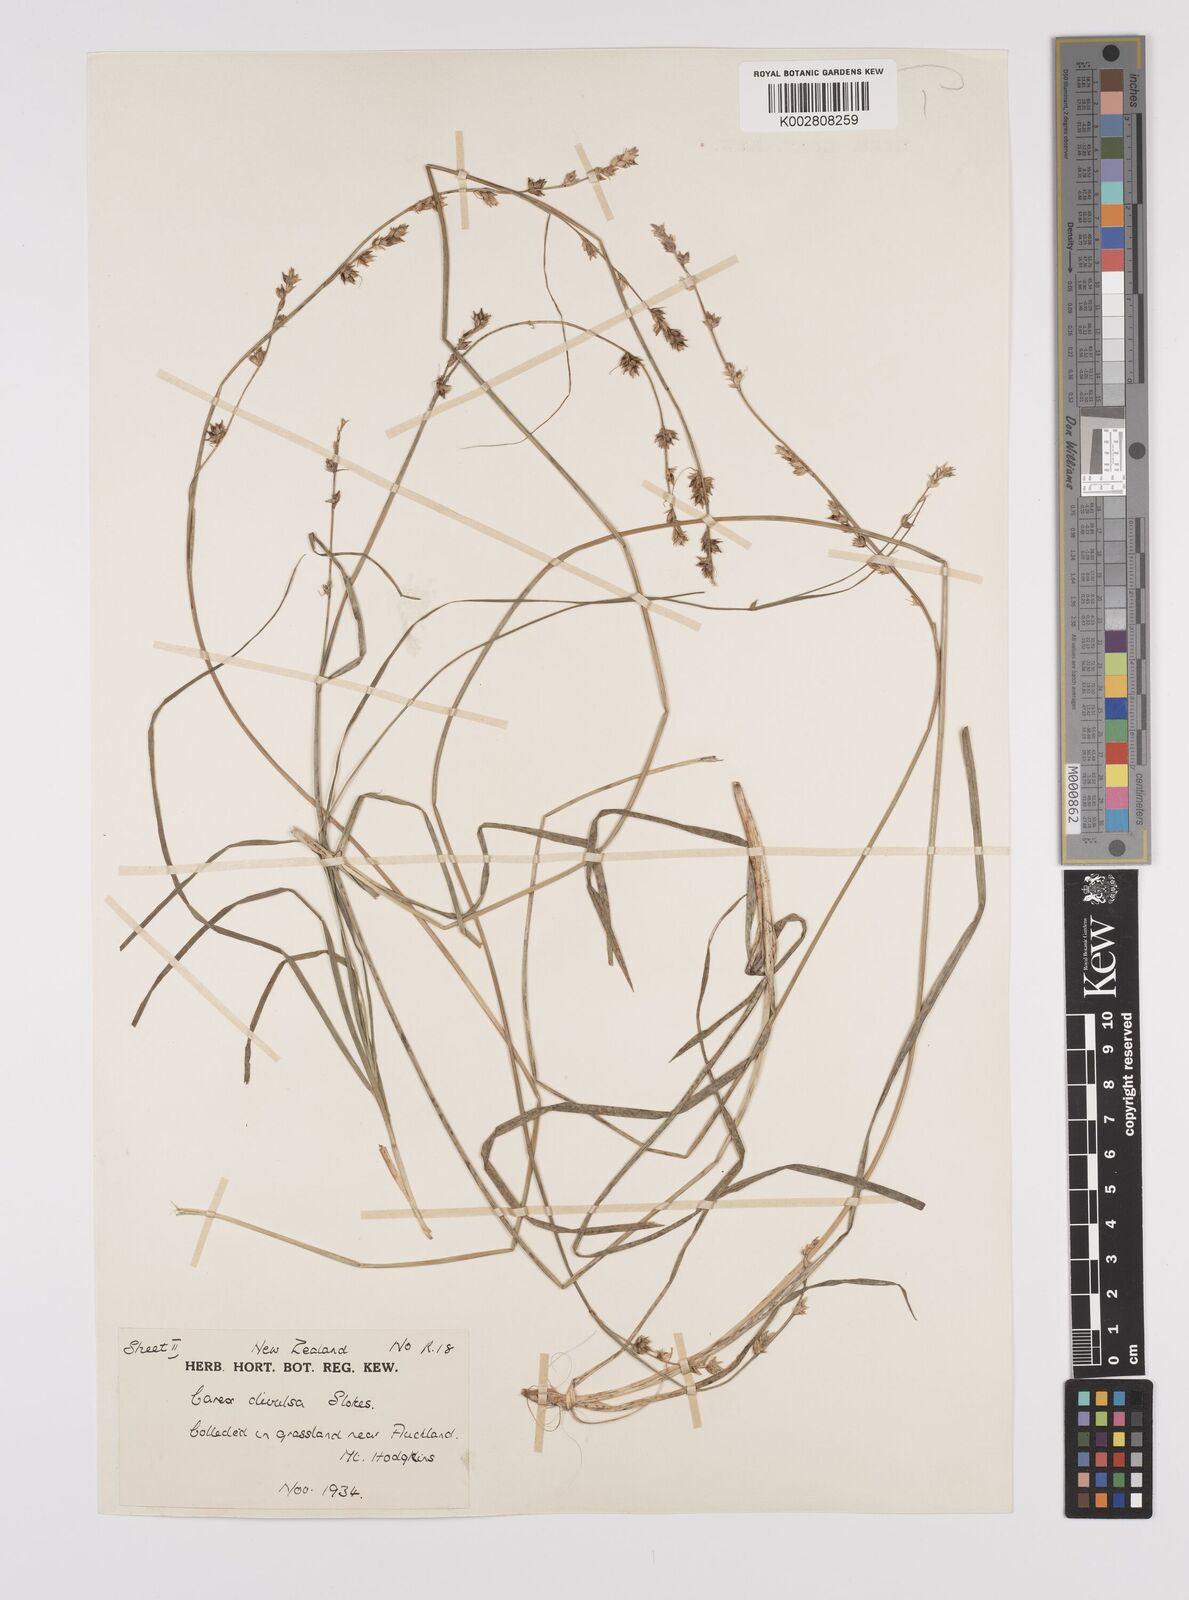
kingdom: Plantae
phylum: Tracheophyta
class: Liliopsida
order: Poales
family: Cyperaceae
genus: Carex
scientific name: Carex divulsa
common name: Grassland sedge
